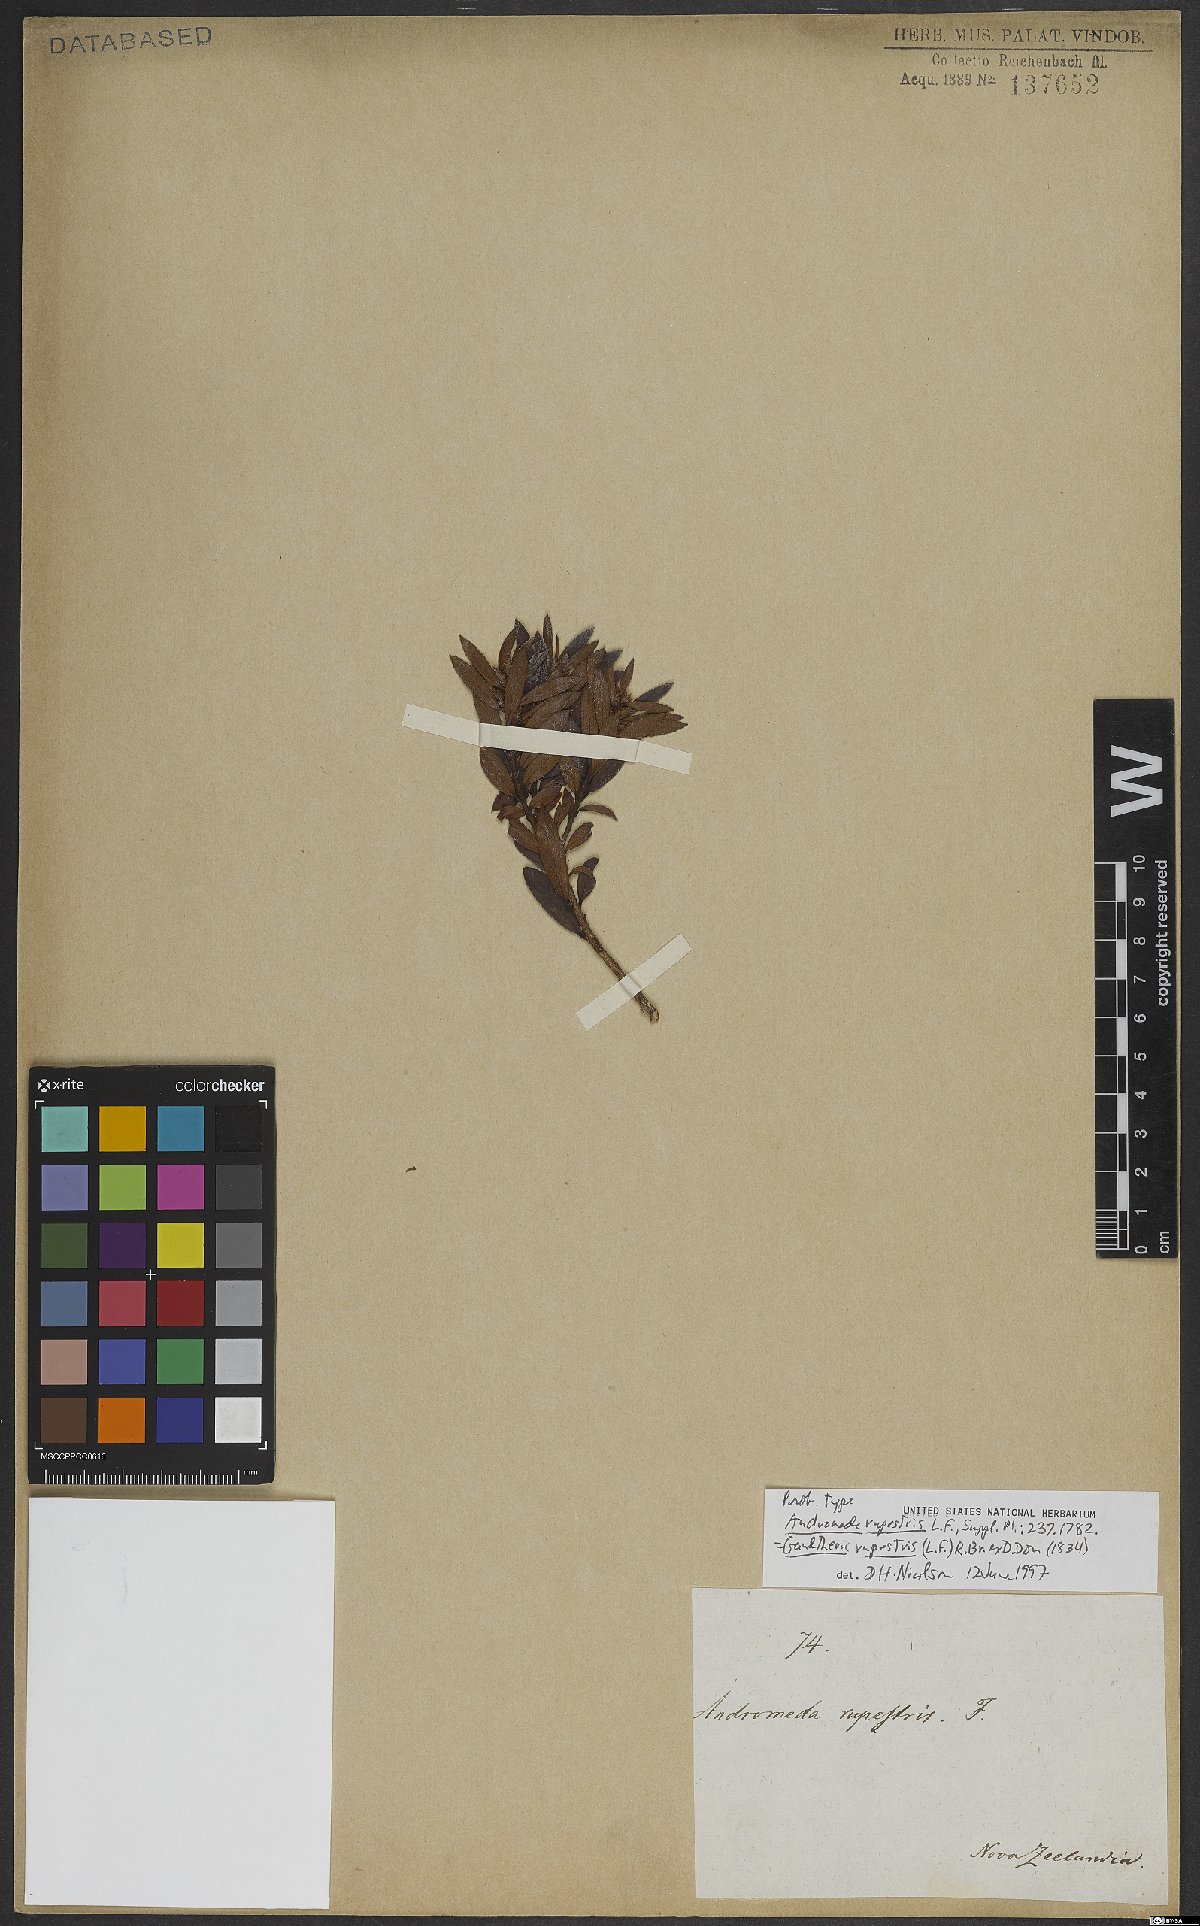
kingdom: Plantae
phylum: Tracheophyta
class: Magnoliopsida
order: Ericales
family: Ericaceae
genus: Gaultheria
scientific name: Gaultheria rupestris
